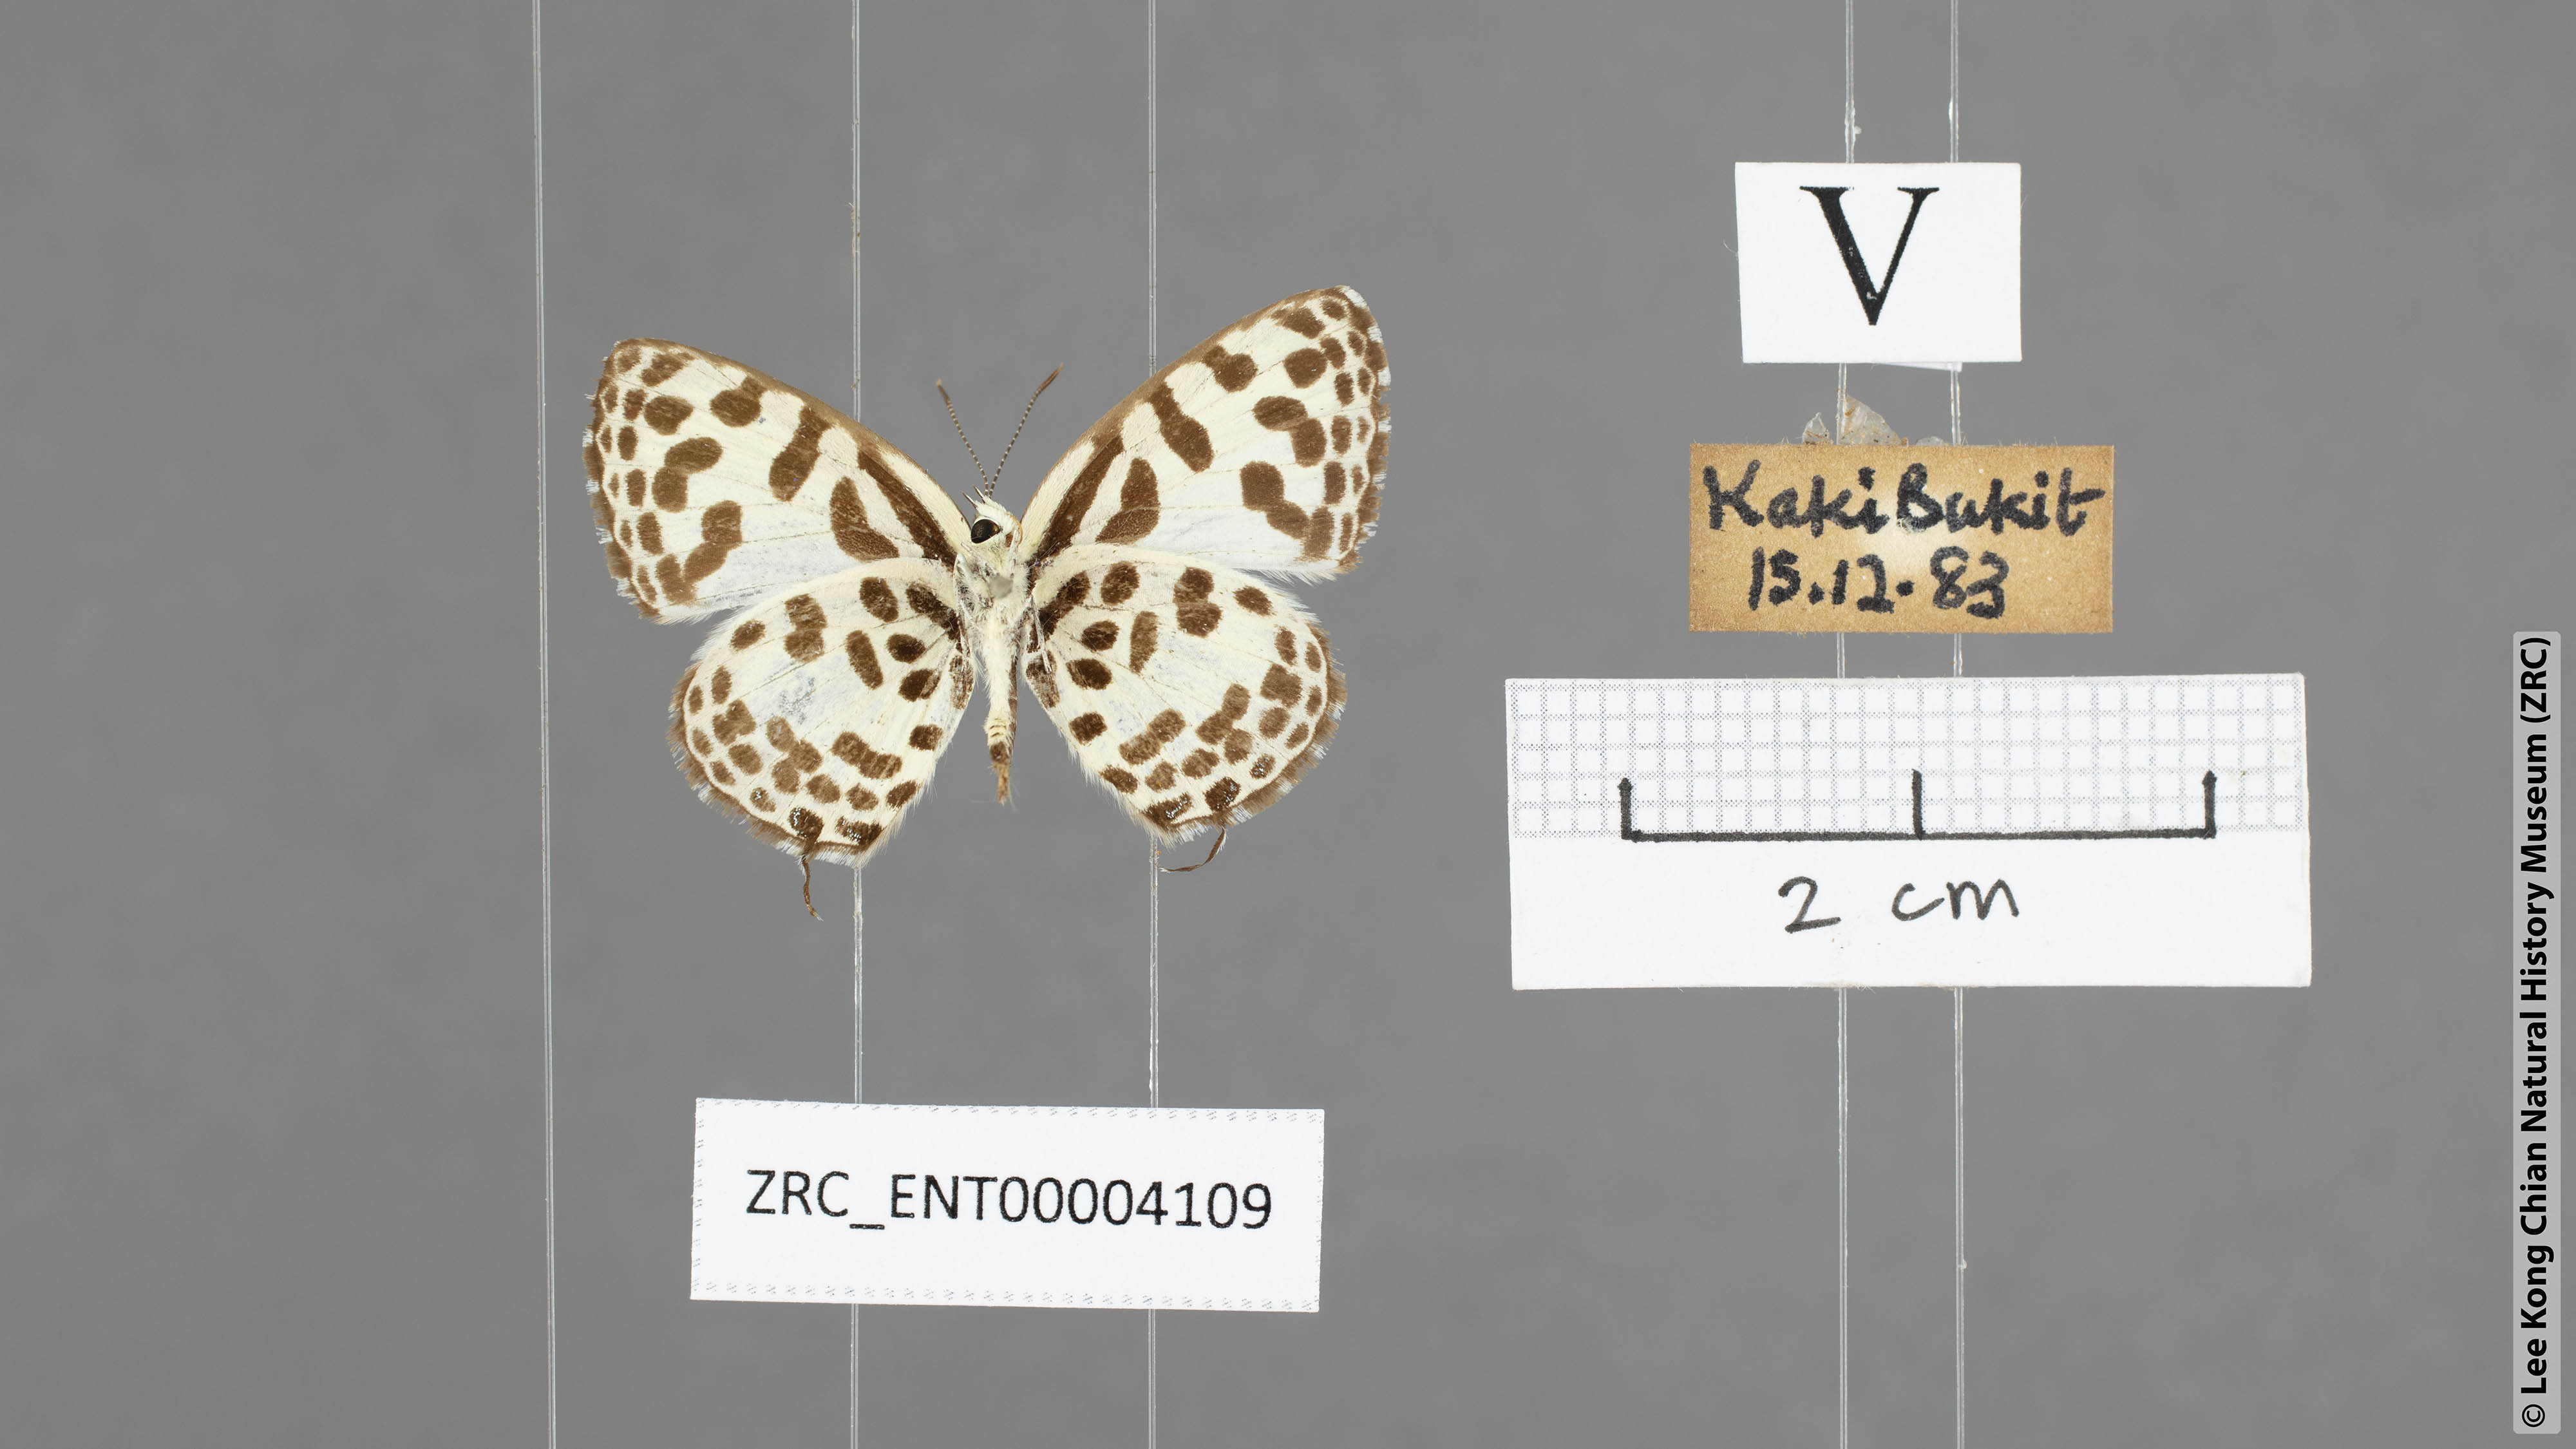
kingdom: Animalia
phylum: Arthropoda
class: Insecta
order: Lepidoptera
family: Lycaenidae
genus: Castalius
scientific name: Castalius rosimon
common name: Common pierrot
